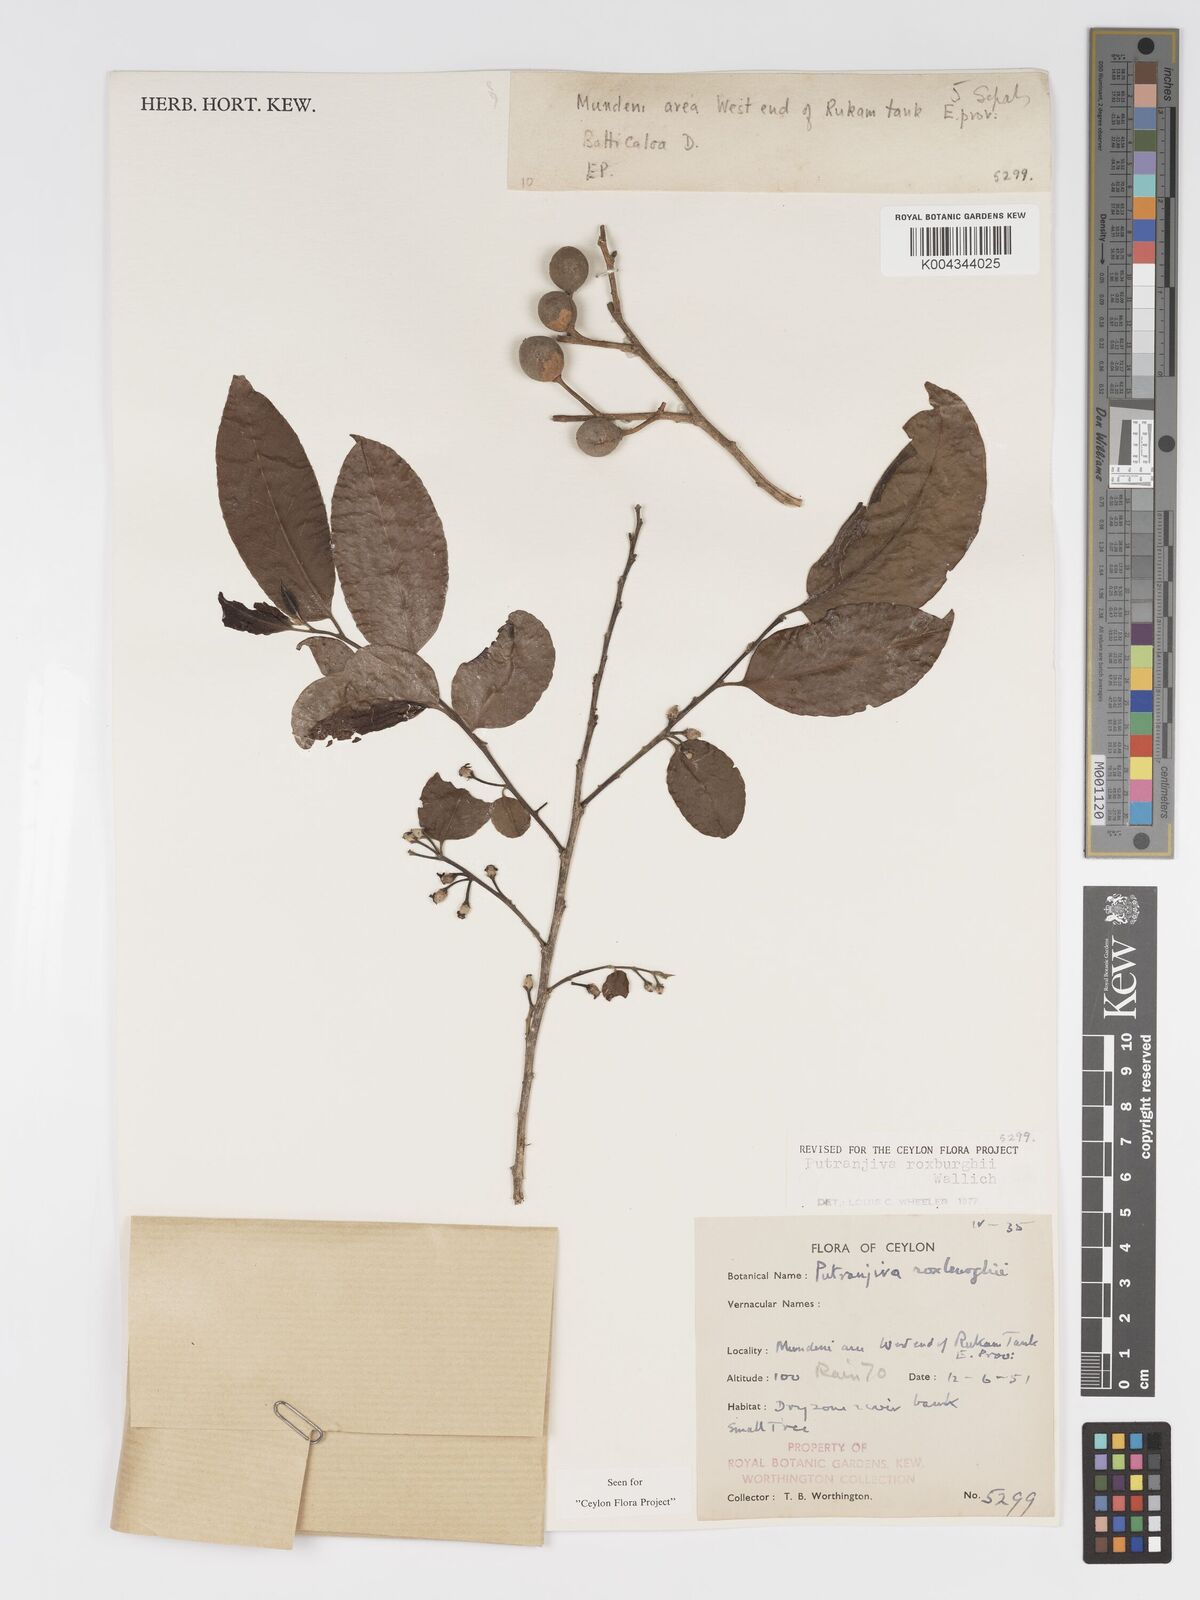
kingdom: Plantae
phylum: Tracheophyta
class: Magnoliopsida
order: Malpighiales
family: Putranjivaceae
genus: Putranjiva
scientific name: Putranjiva roxburghii
